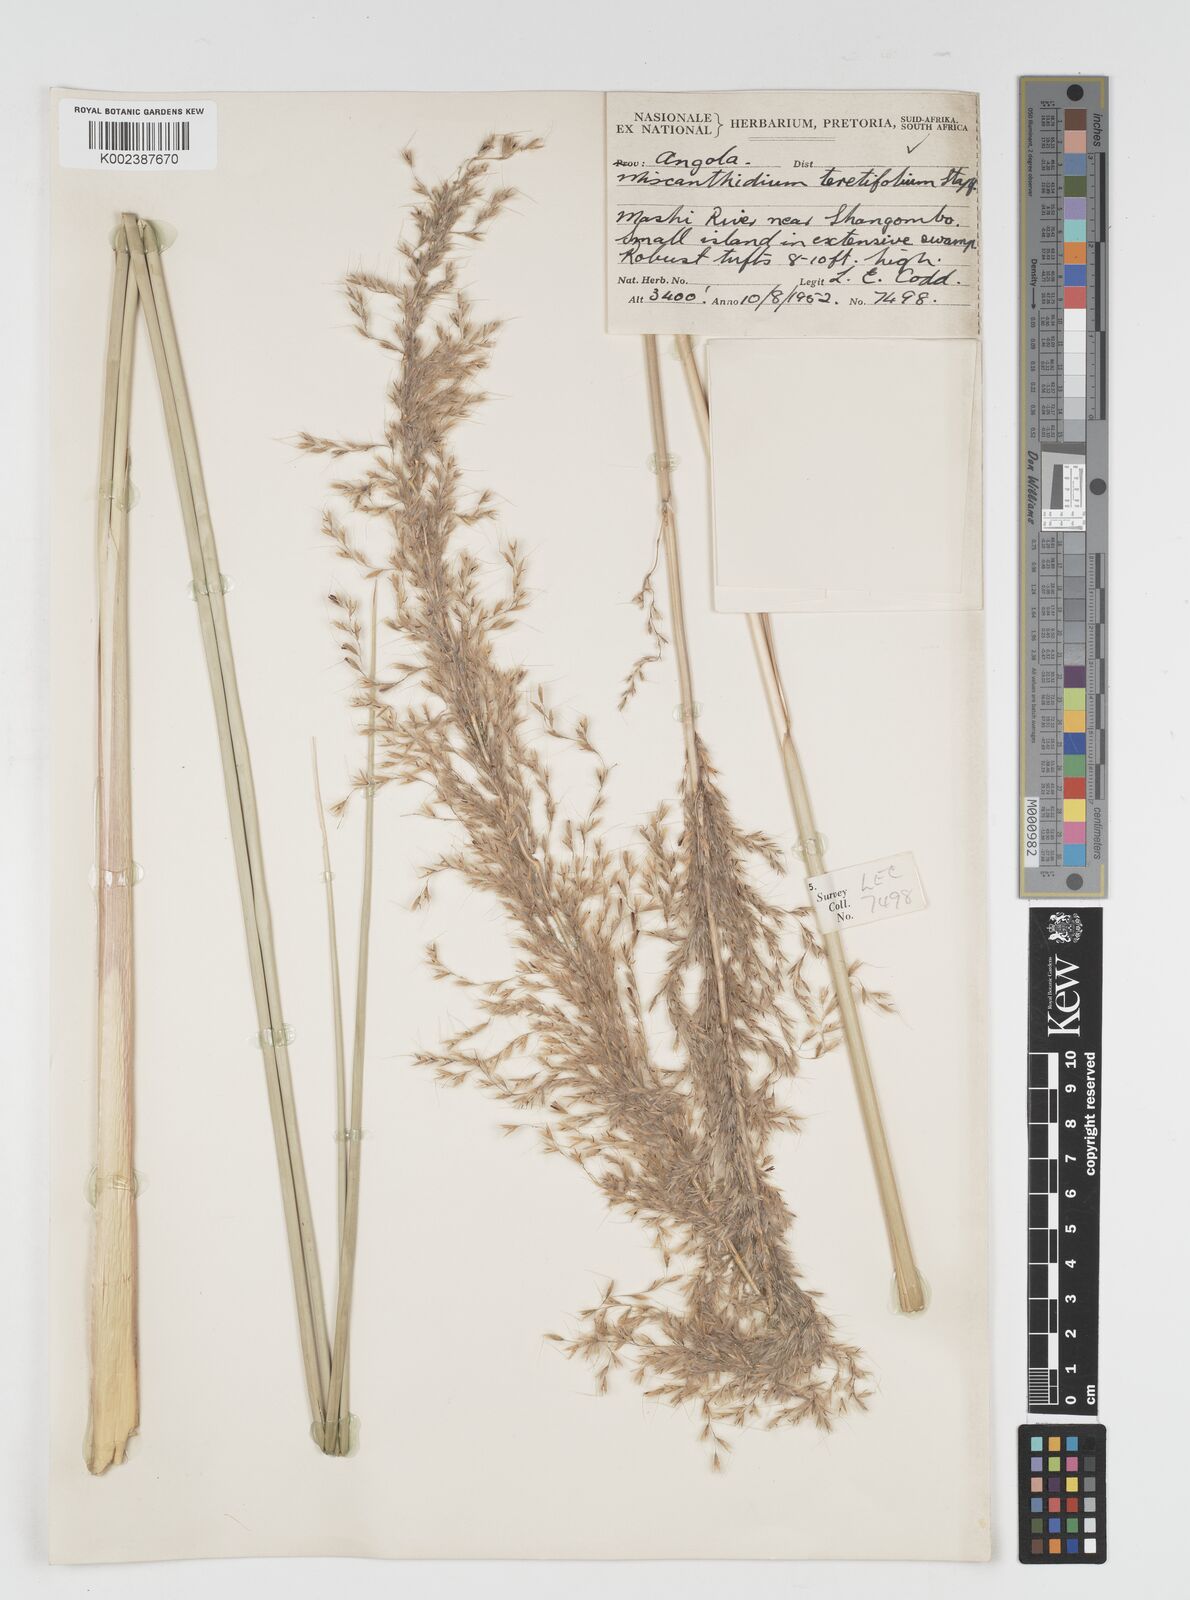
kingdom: Plantae
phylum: Tracheophyta
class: Liliopsida
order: Poales
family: Poaceae
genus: Miscanthidium
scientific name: Miscanthidium junceum
